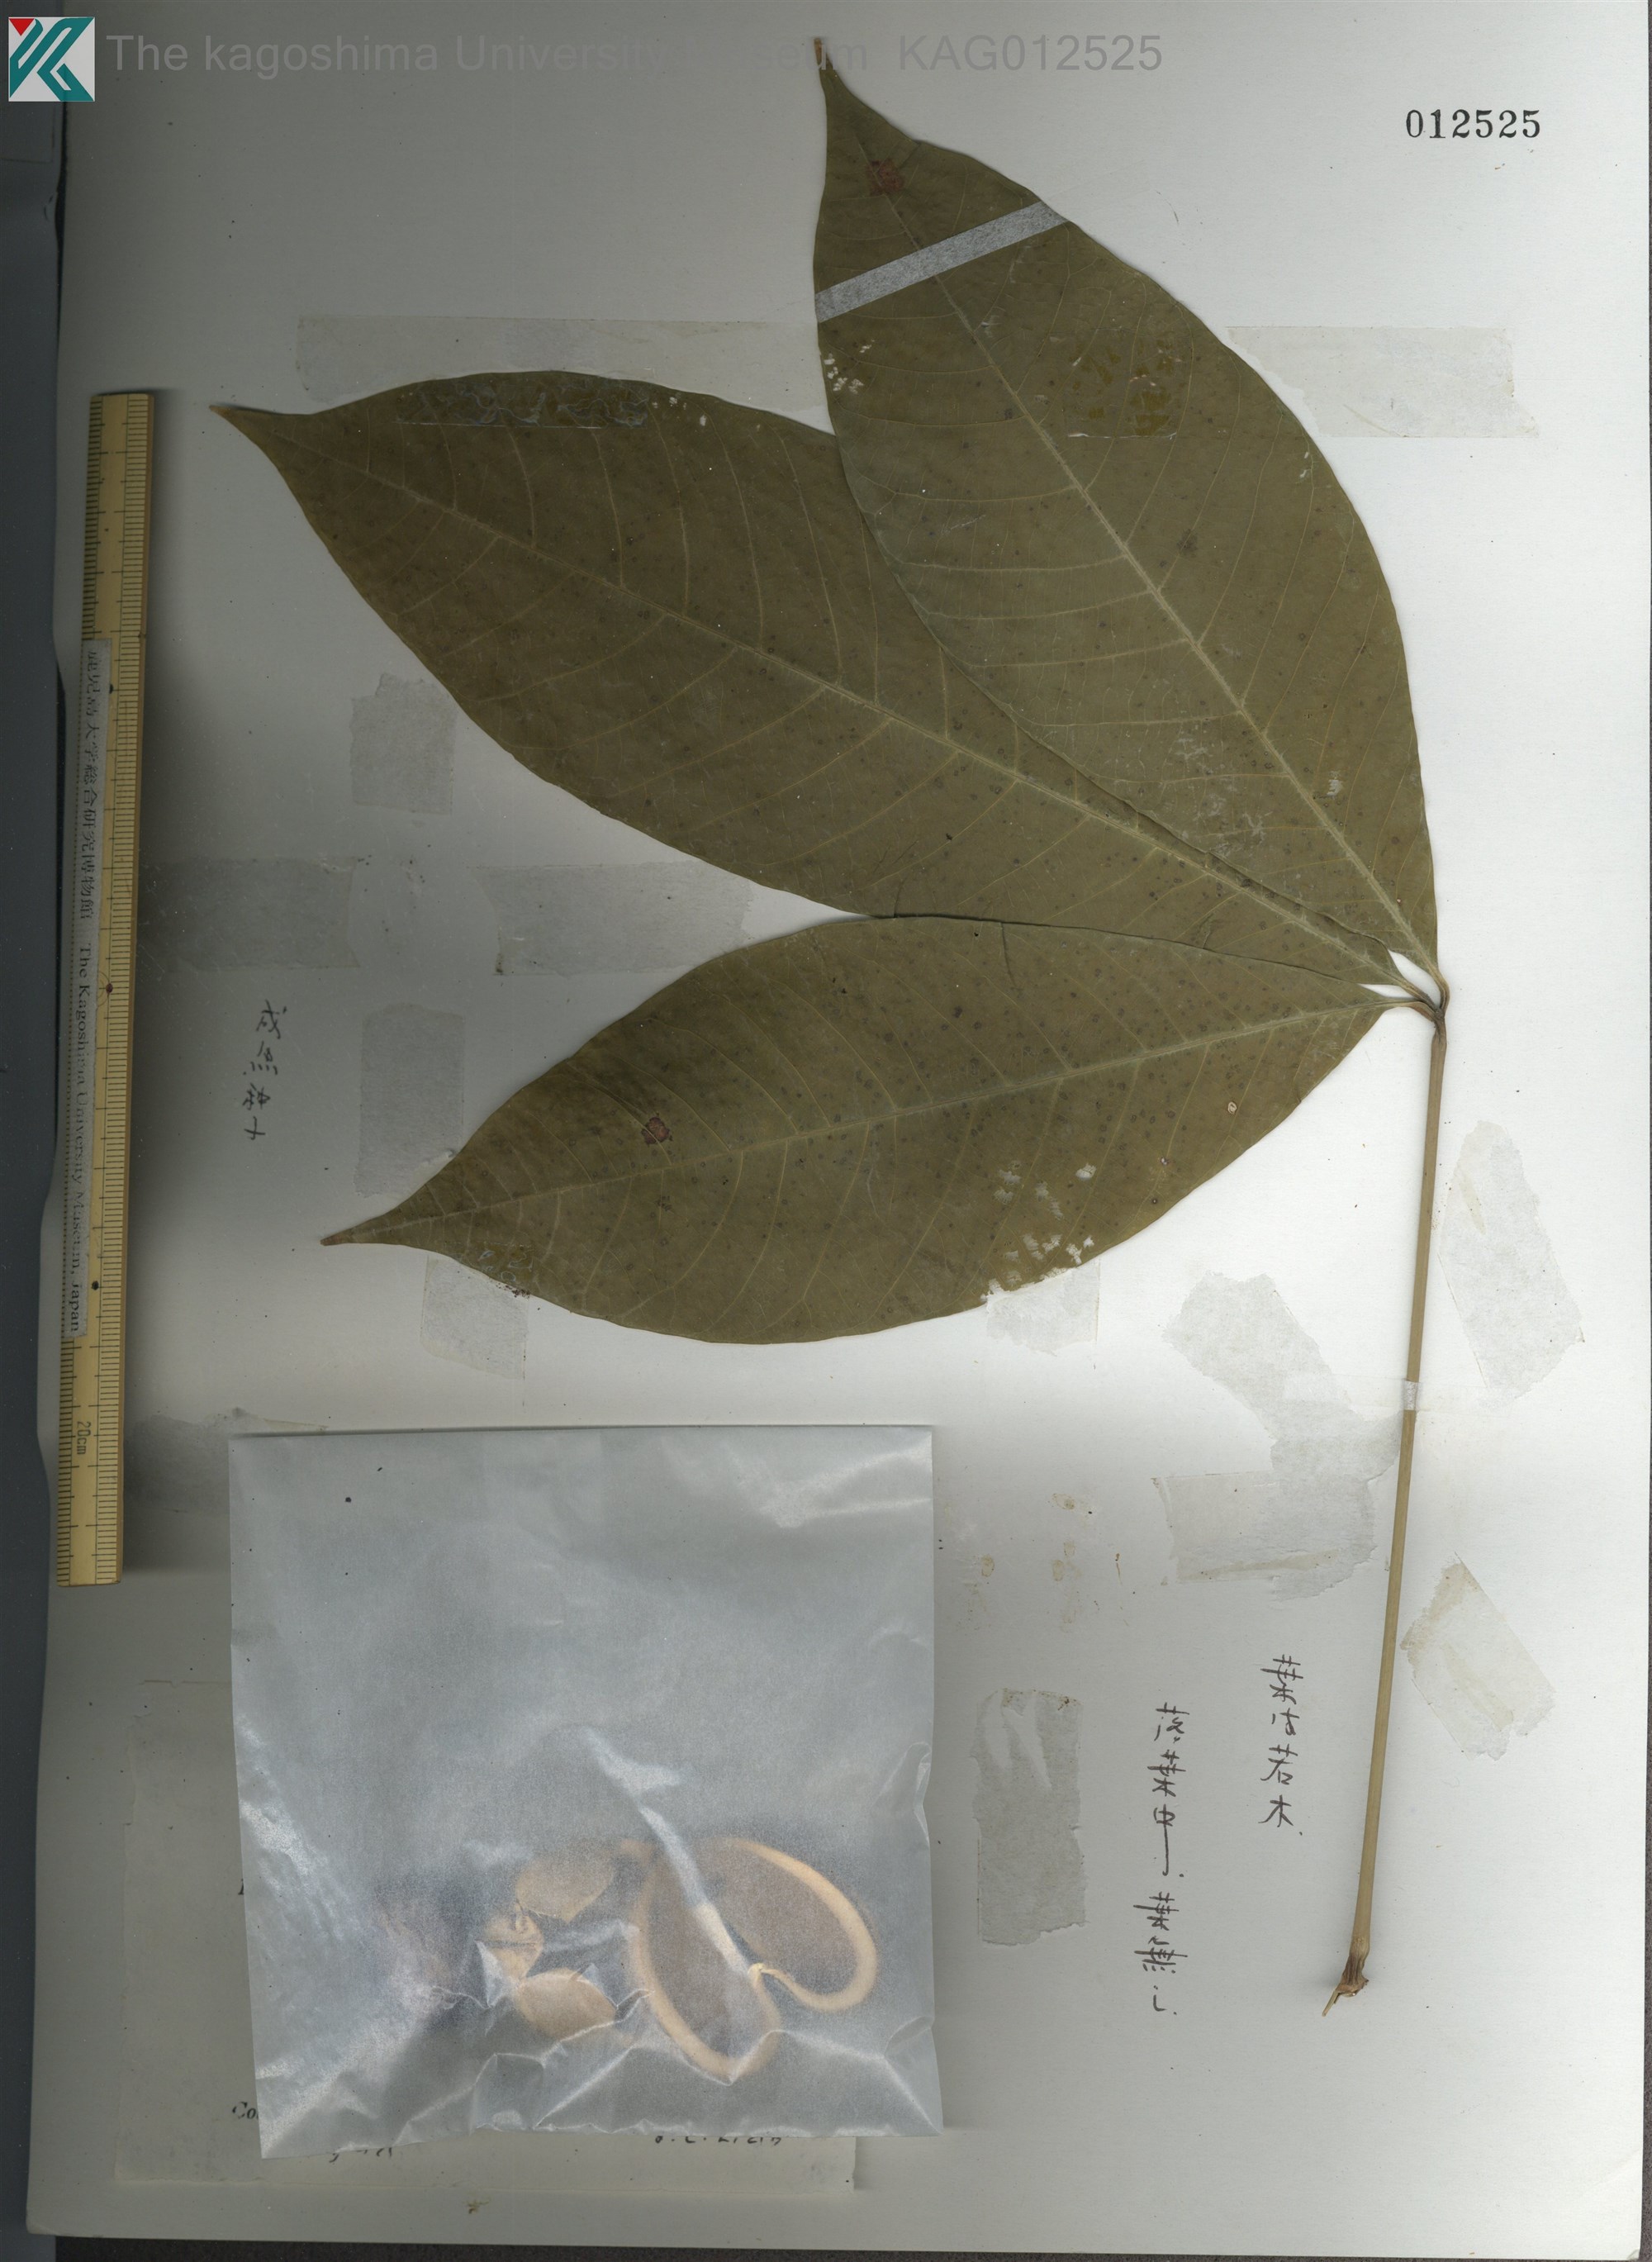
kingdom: Plantae
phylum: Tracheophyta
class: Magnoliopsida
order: Malpighiales
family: Euphorbiaceae
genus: Hevea
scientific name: Hevea brasiliensis
